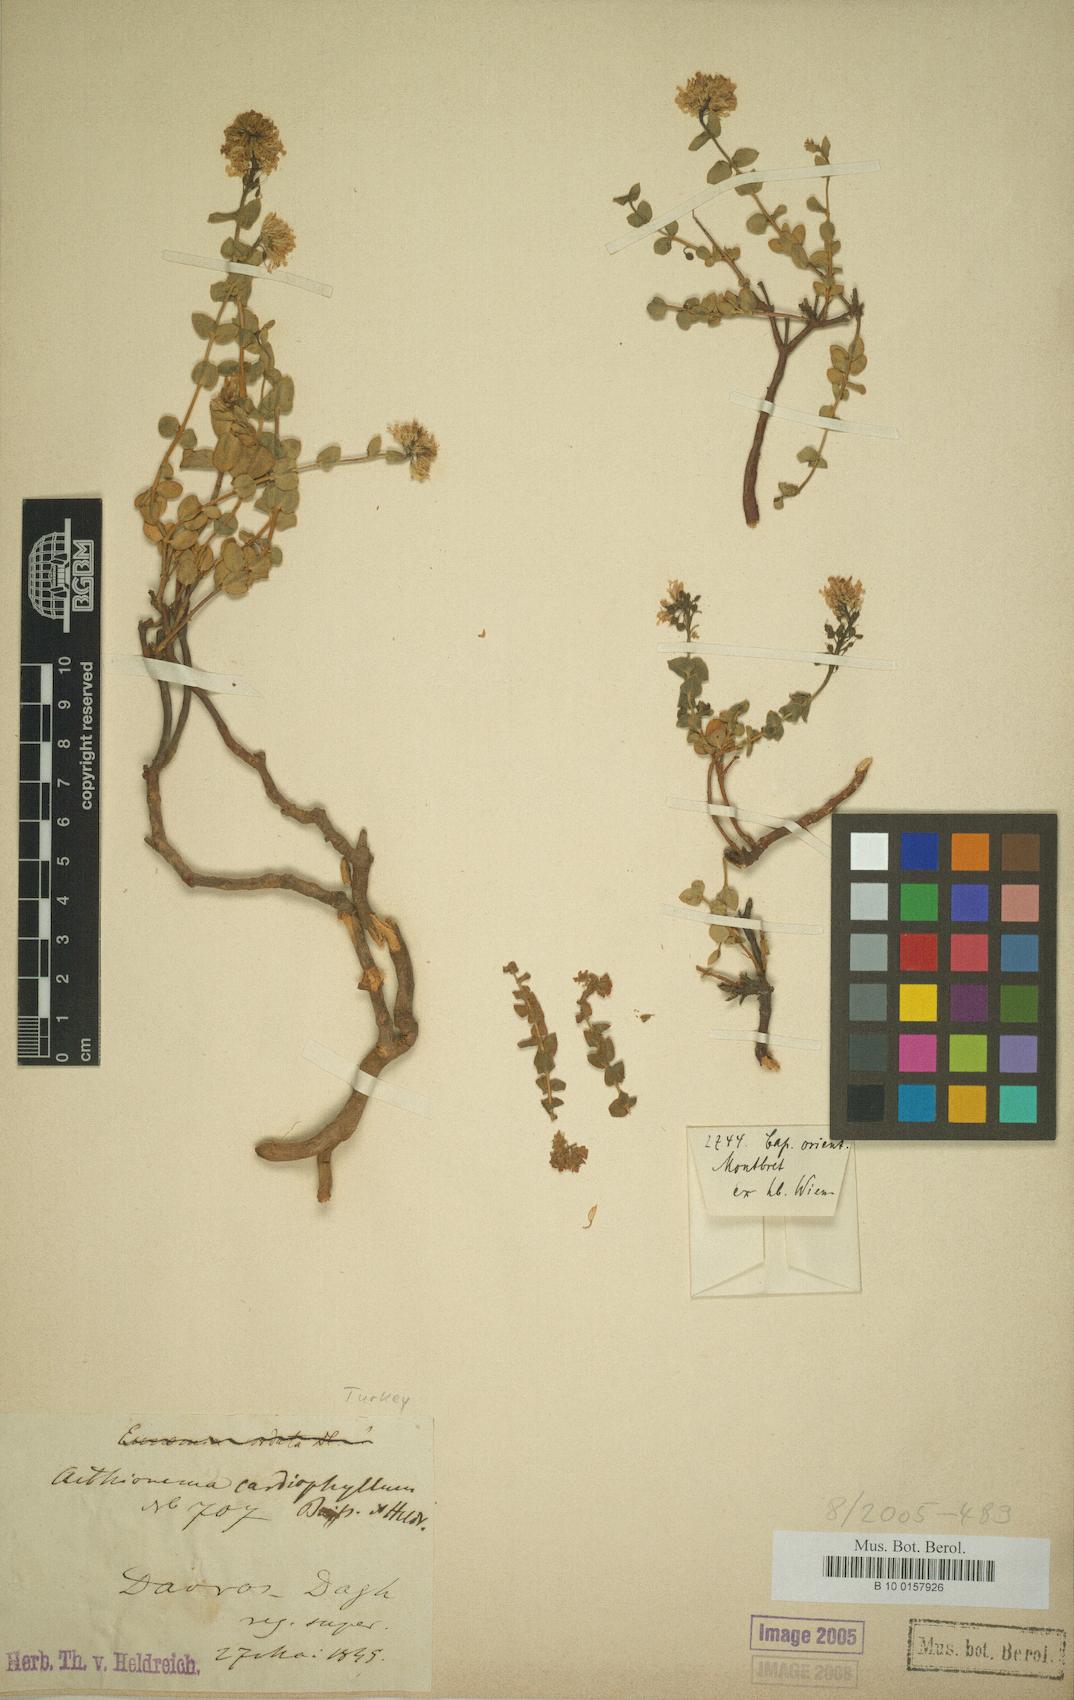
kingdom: Plantae
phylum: Tracheophyta
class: Magnoliopsida
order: Brassicales
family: Brassicaceae
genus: Aethionema
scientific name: Aethionema cordatum
